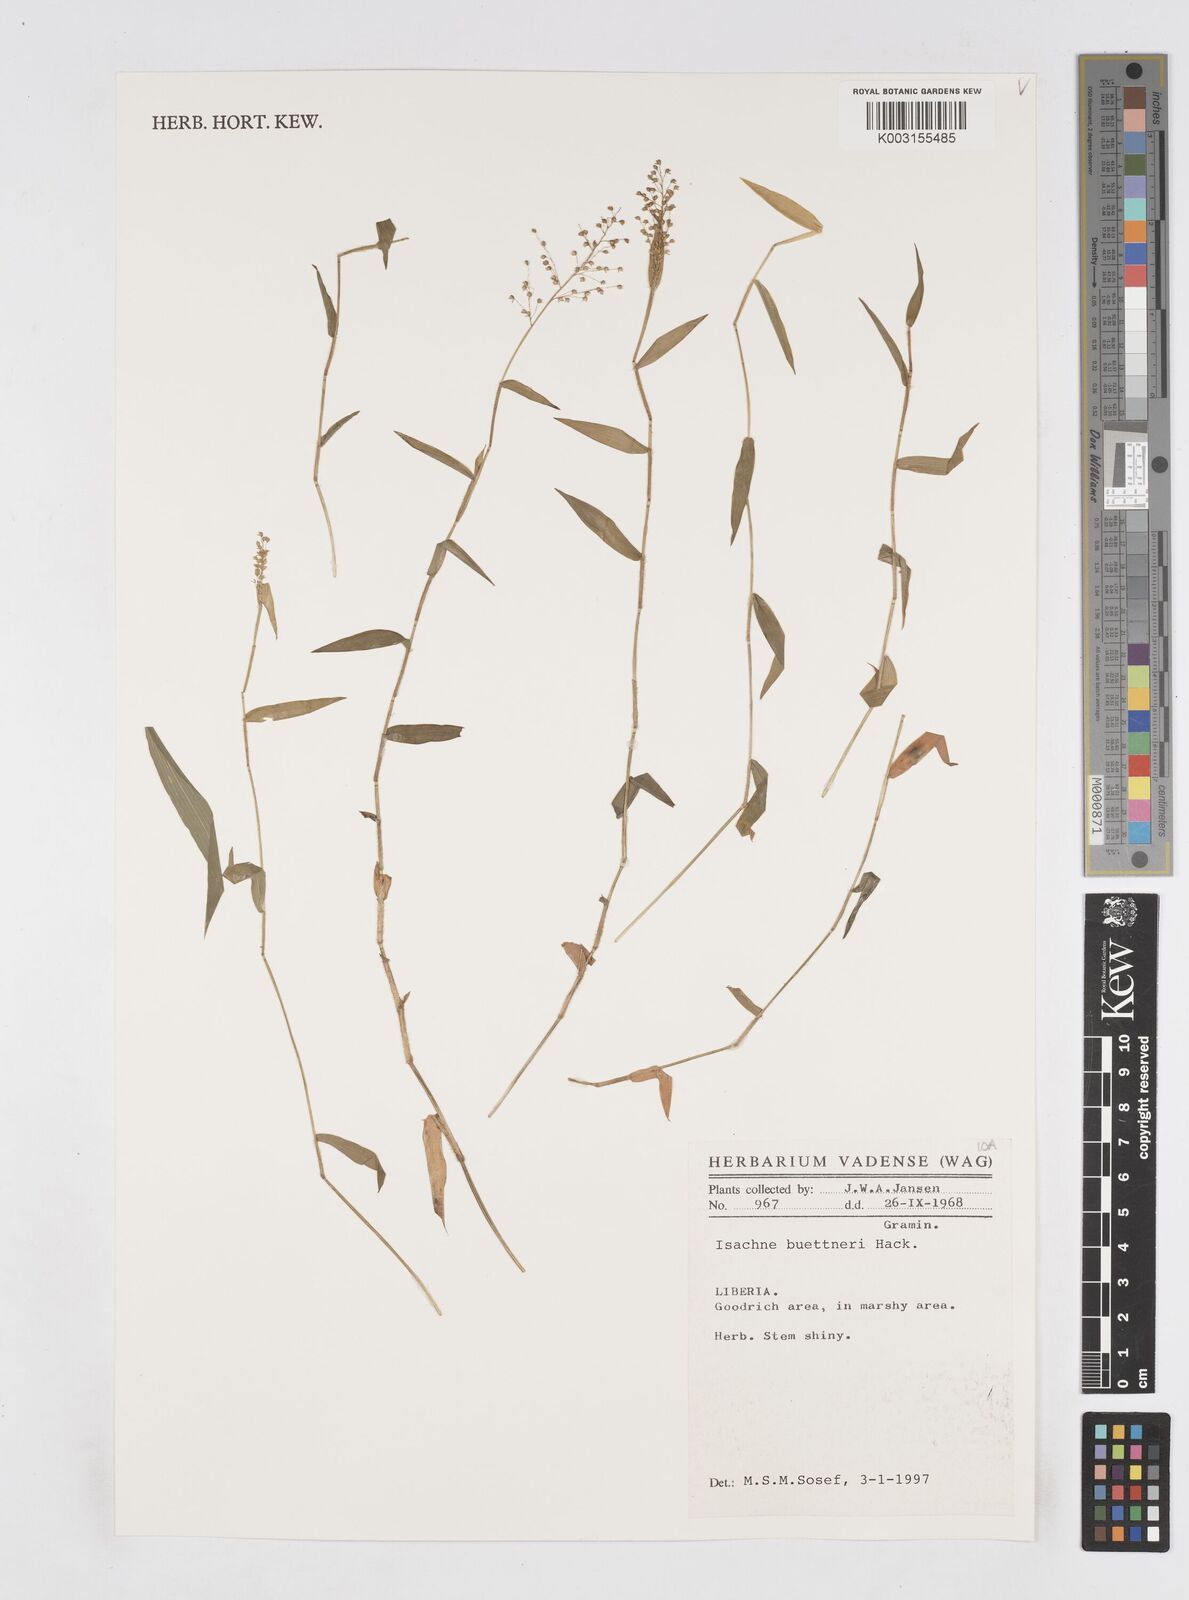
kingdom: Plantae
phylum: Tracheophyta
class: Liliopsida
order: Poales
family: Poaceae
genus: Isachne
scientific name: Isachne albens
